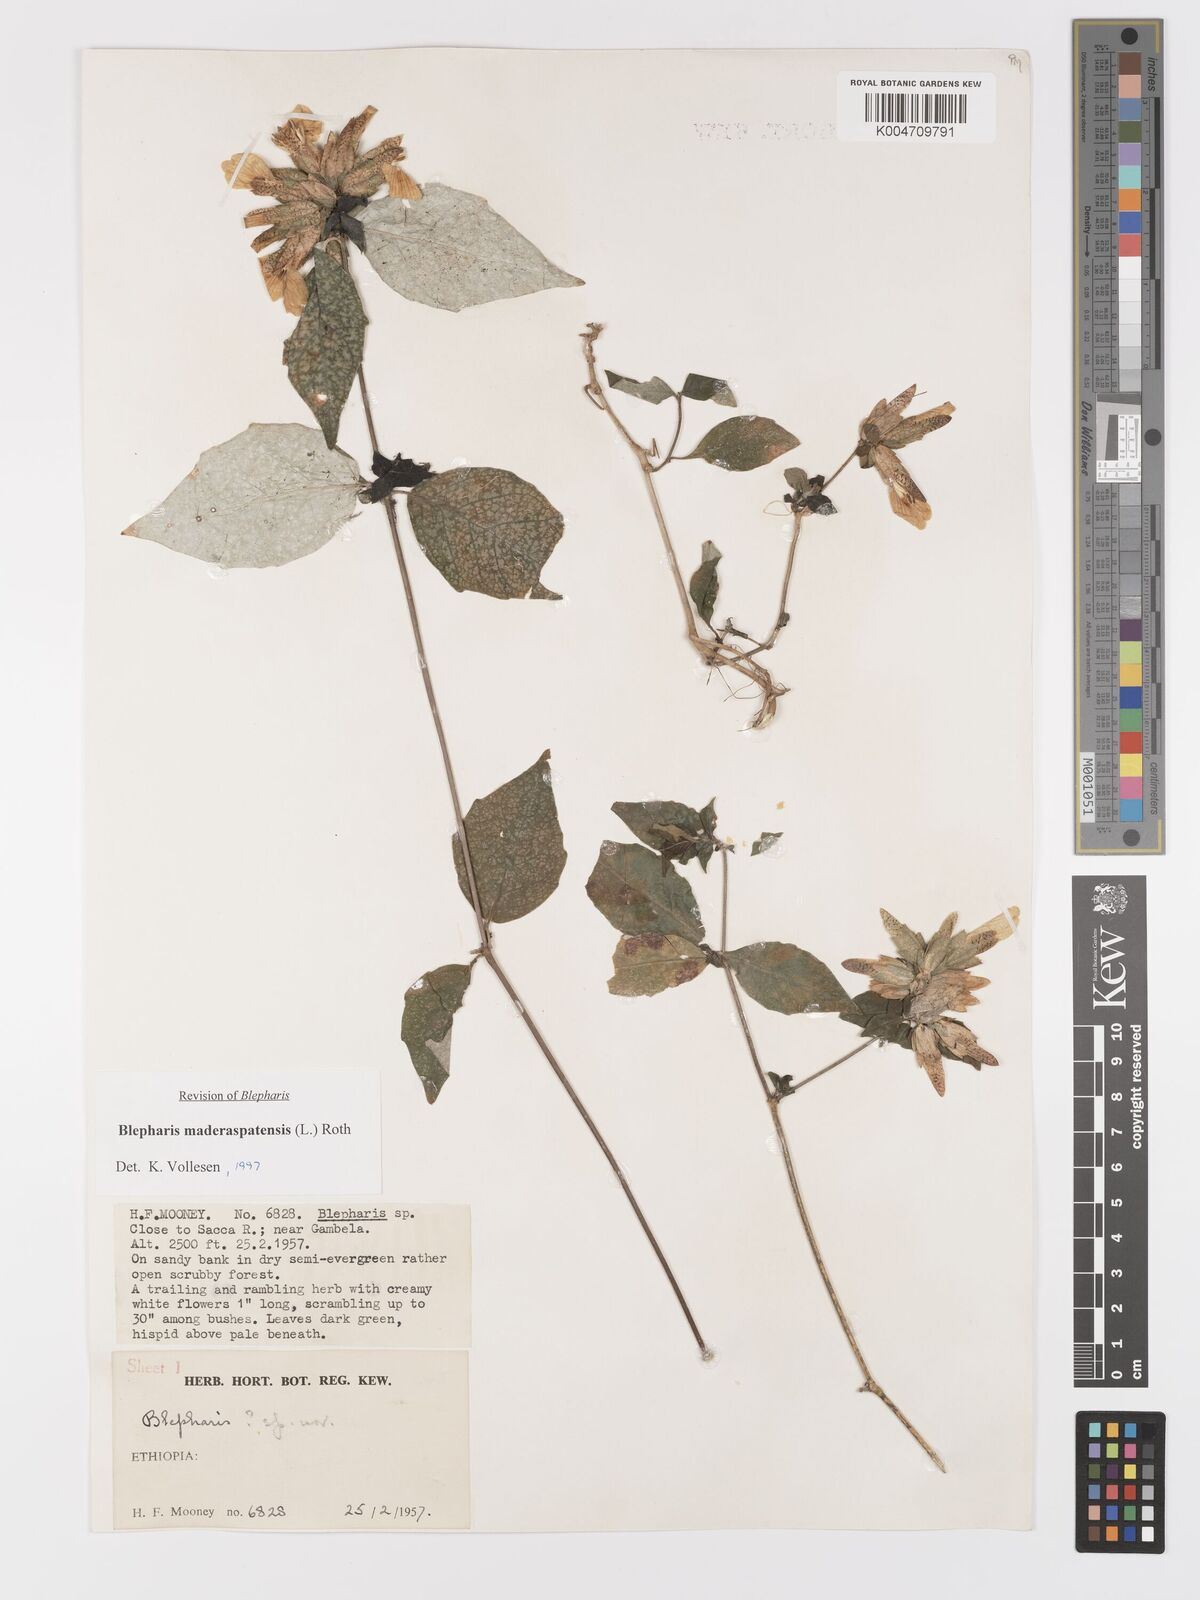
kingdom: Plantae
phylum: Tracheophyta
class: Magnoliopsida
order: Lamiales
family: Acanthaceae
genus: Blepharis
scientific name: Blepharis maderaspatensis
